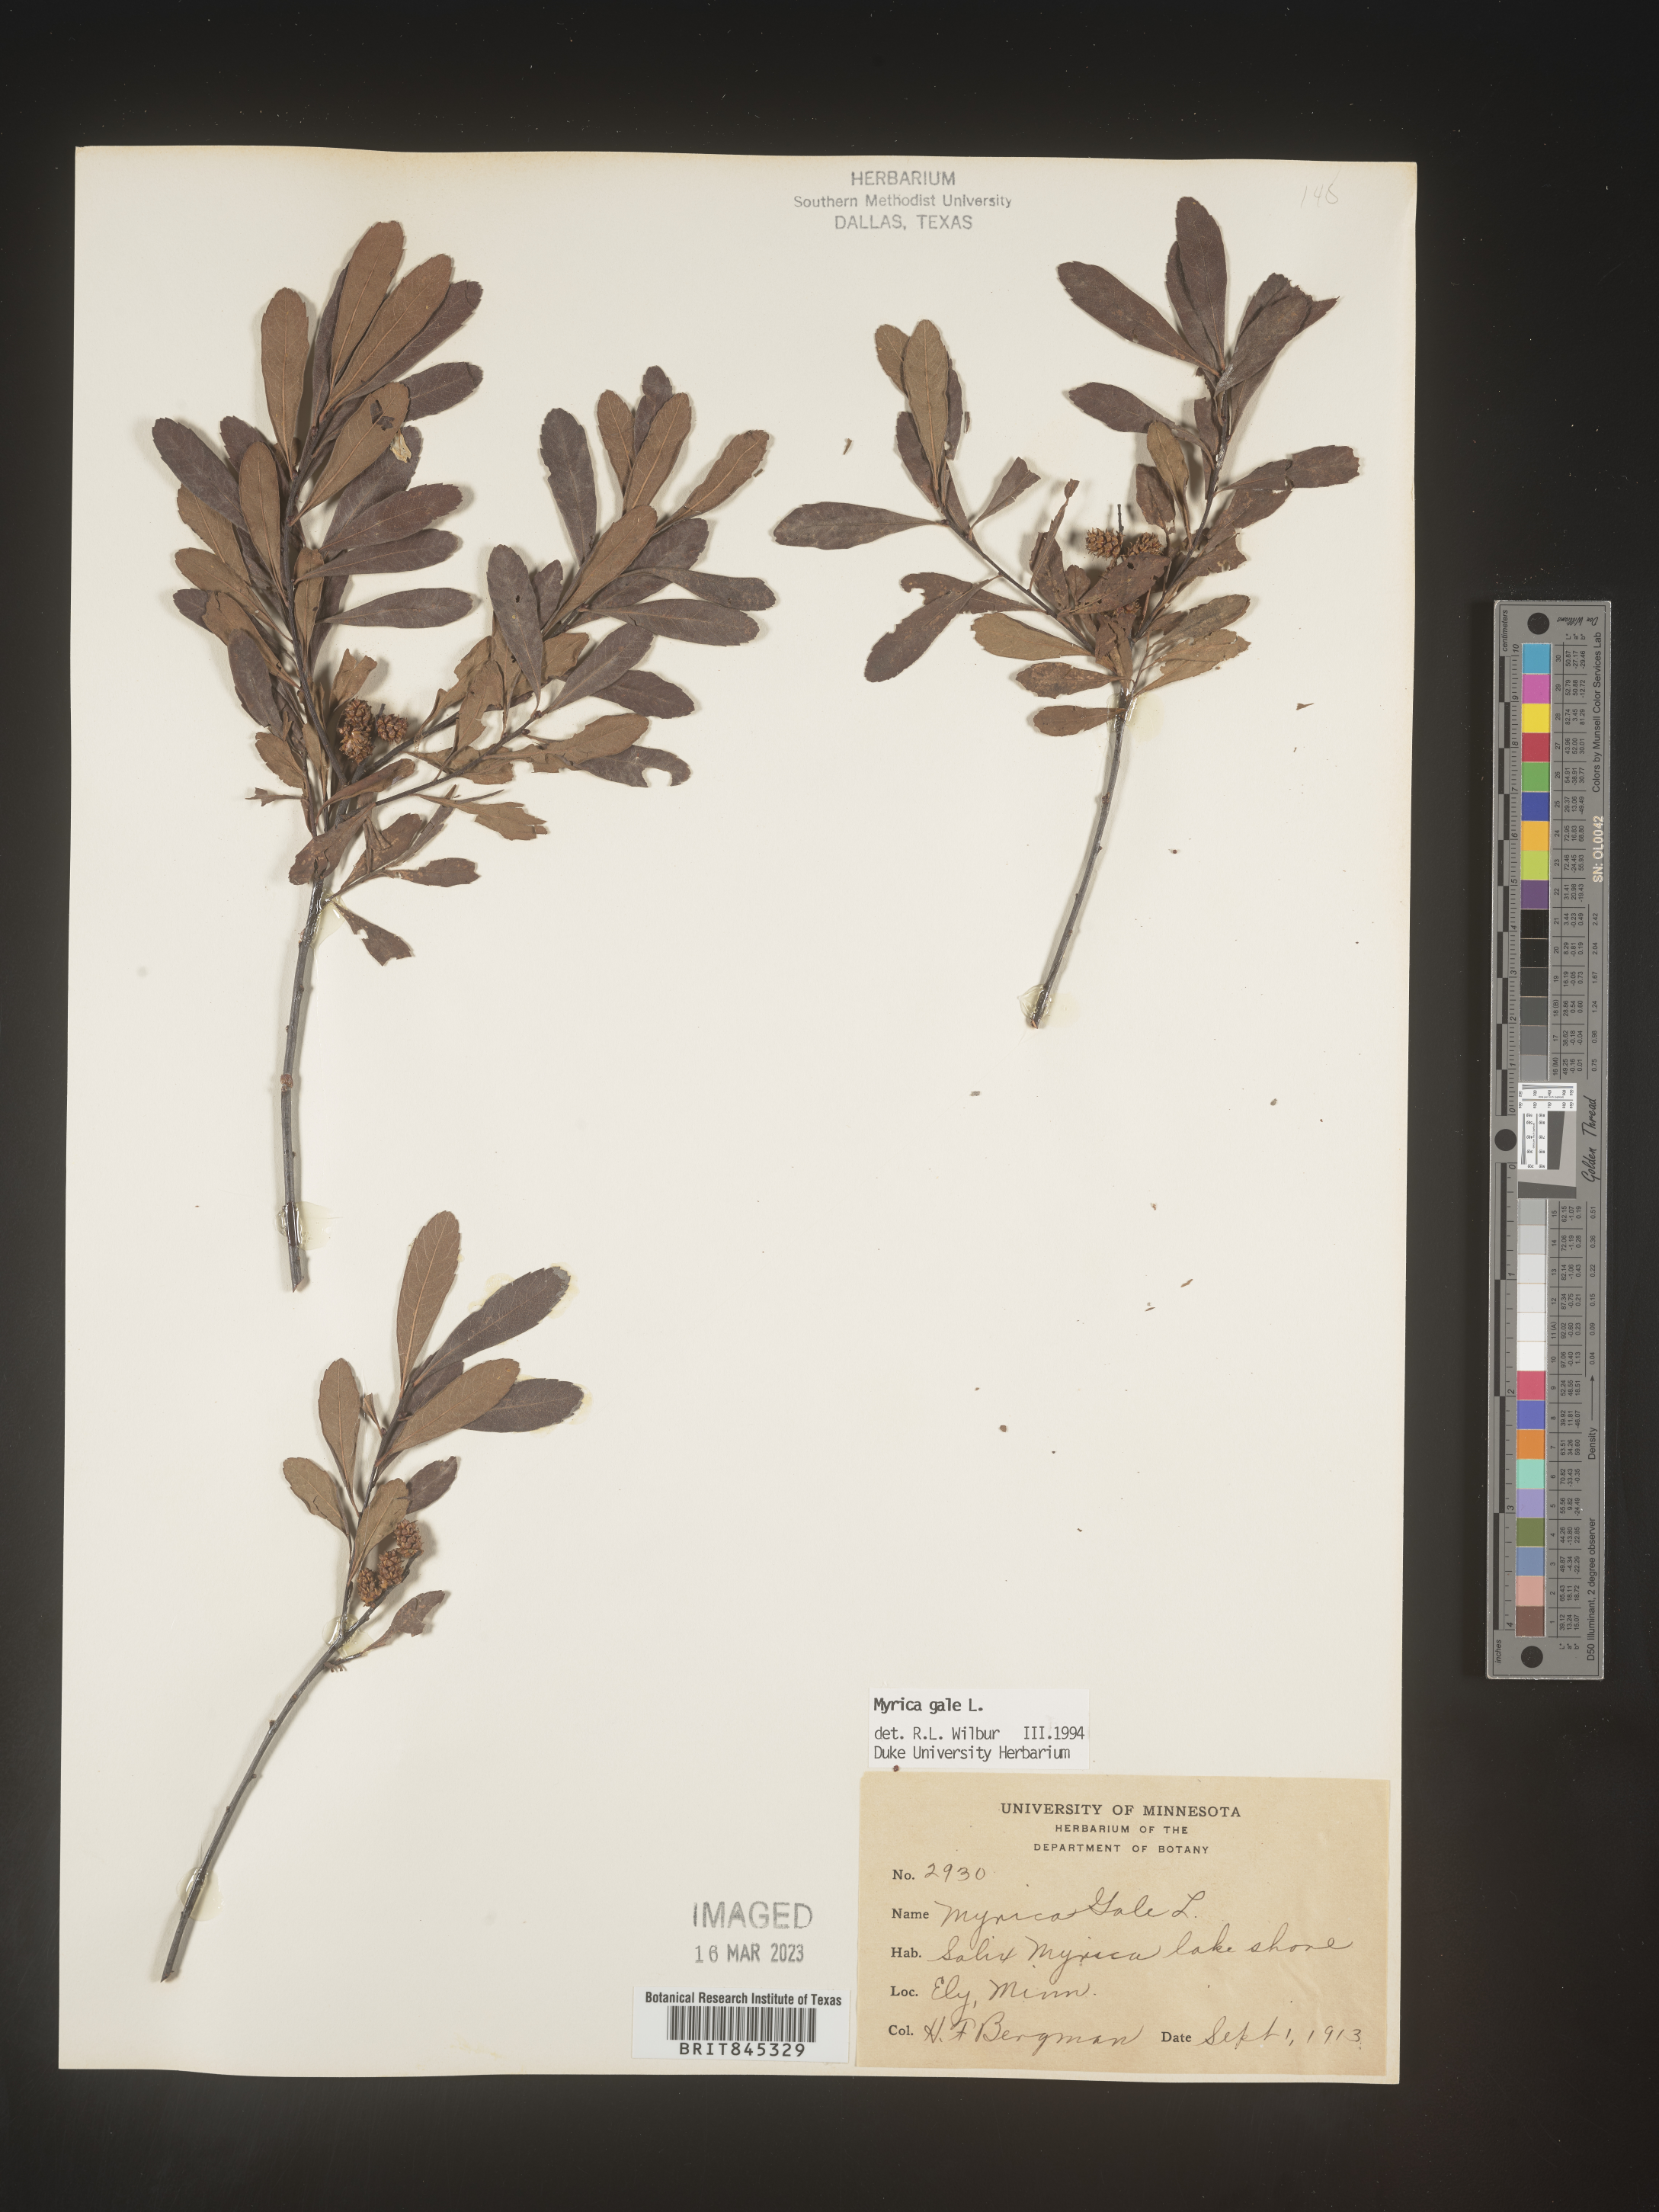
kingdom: Plantae
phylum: Tracheophyta
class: Magnoliopsida
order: Fagales
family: Myricaceae
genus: Myrica
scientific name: Myrica gale
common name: Sweet gale
